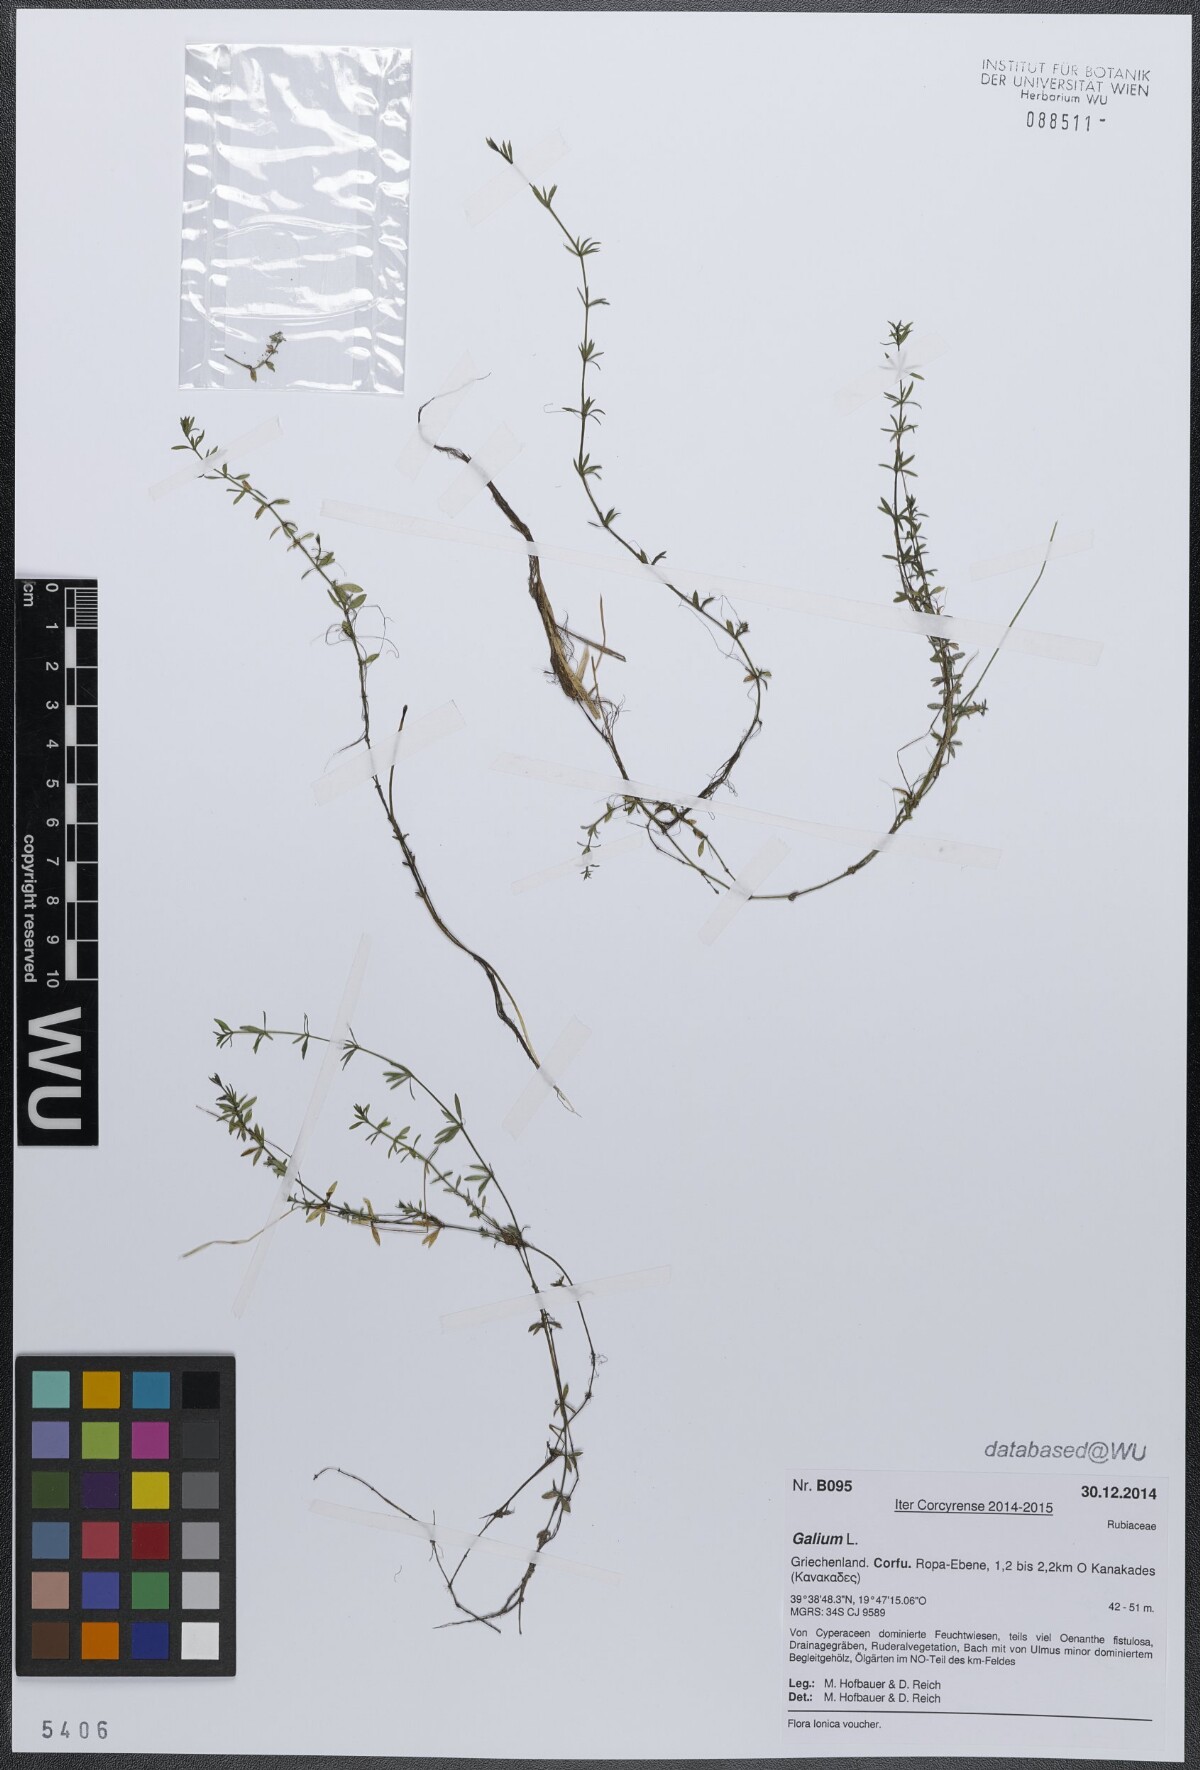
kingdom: Plantae
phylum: Tracheophyta
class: Magnoliopsida
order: Gentianales
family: Rubiaceae
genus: Galium
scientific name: Galium
